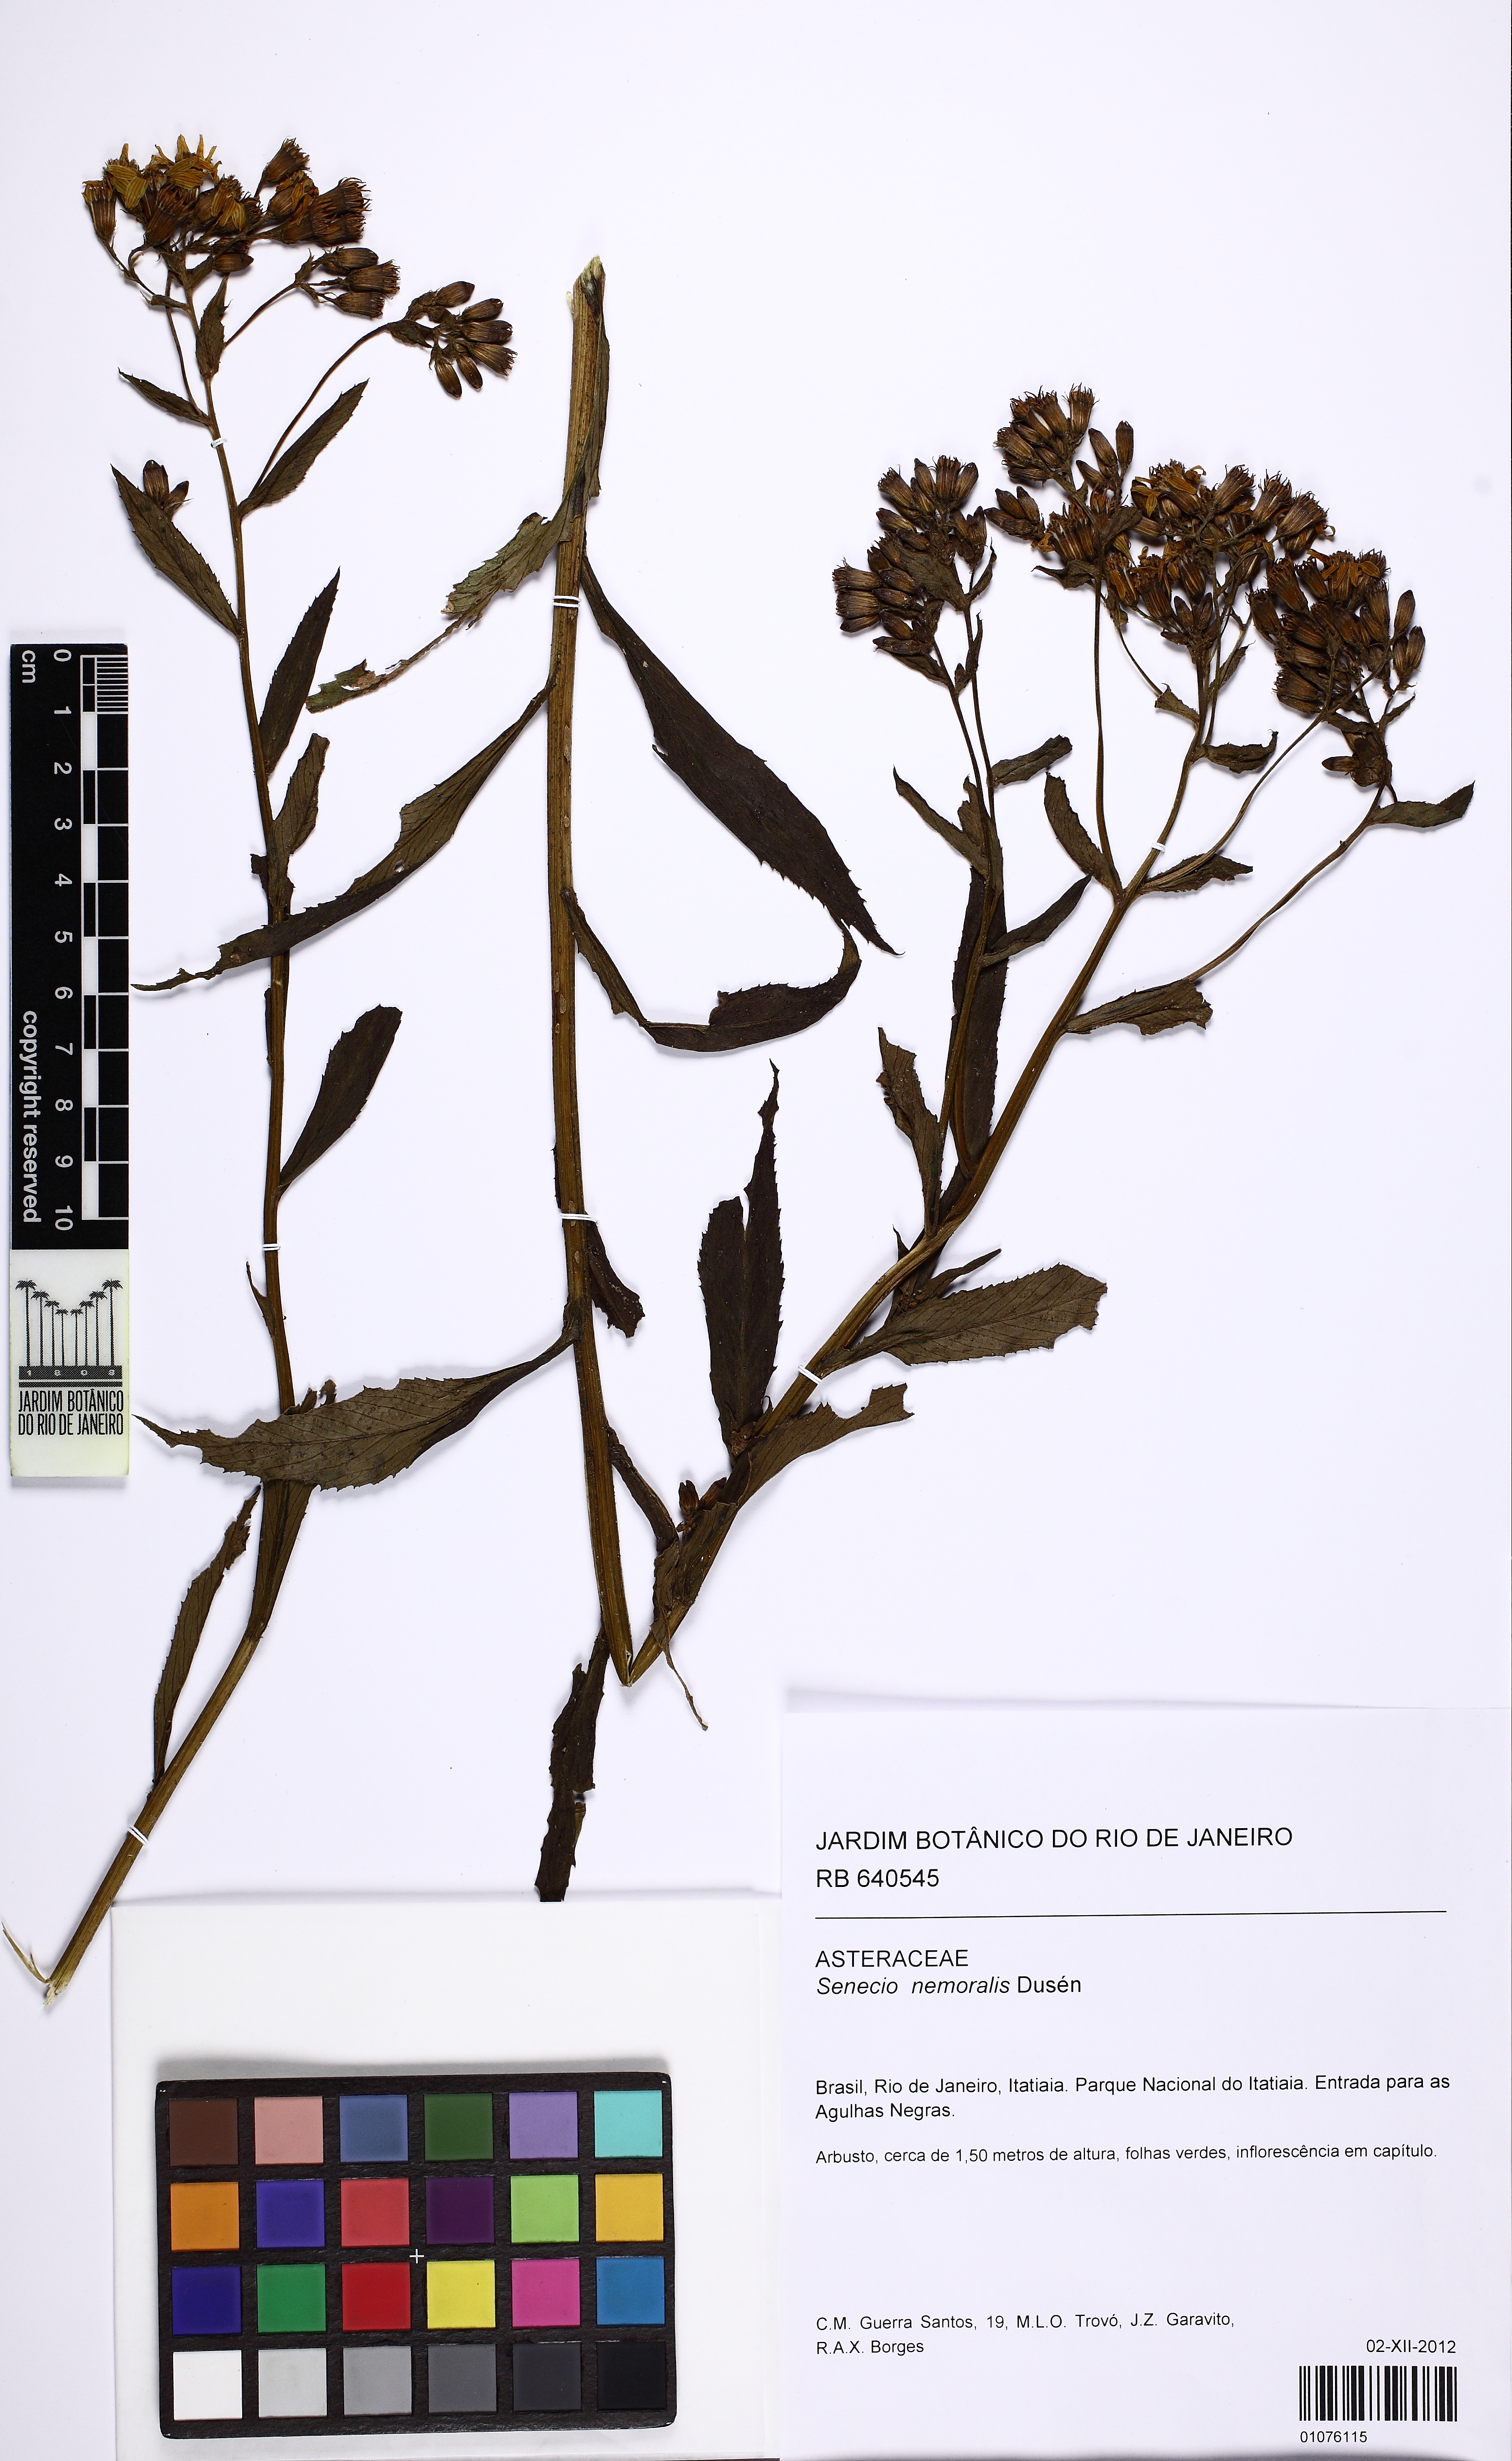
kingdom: Plantae
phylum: Tracheophyta
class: Magnoliopsida
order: Asterales
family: Asteraceae
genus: Senecio
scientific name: Senecio nemoralis
